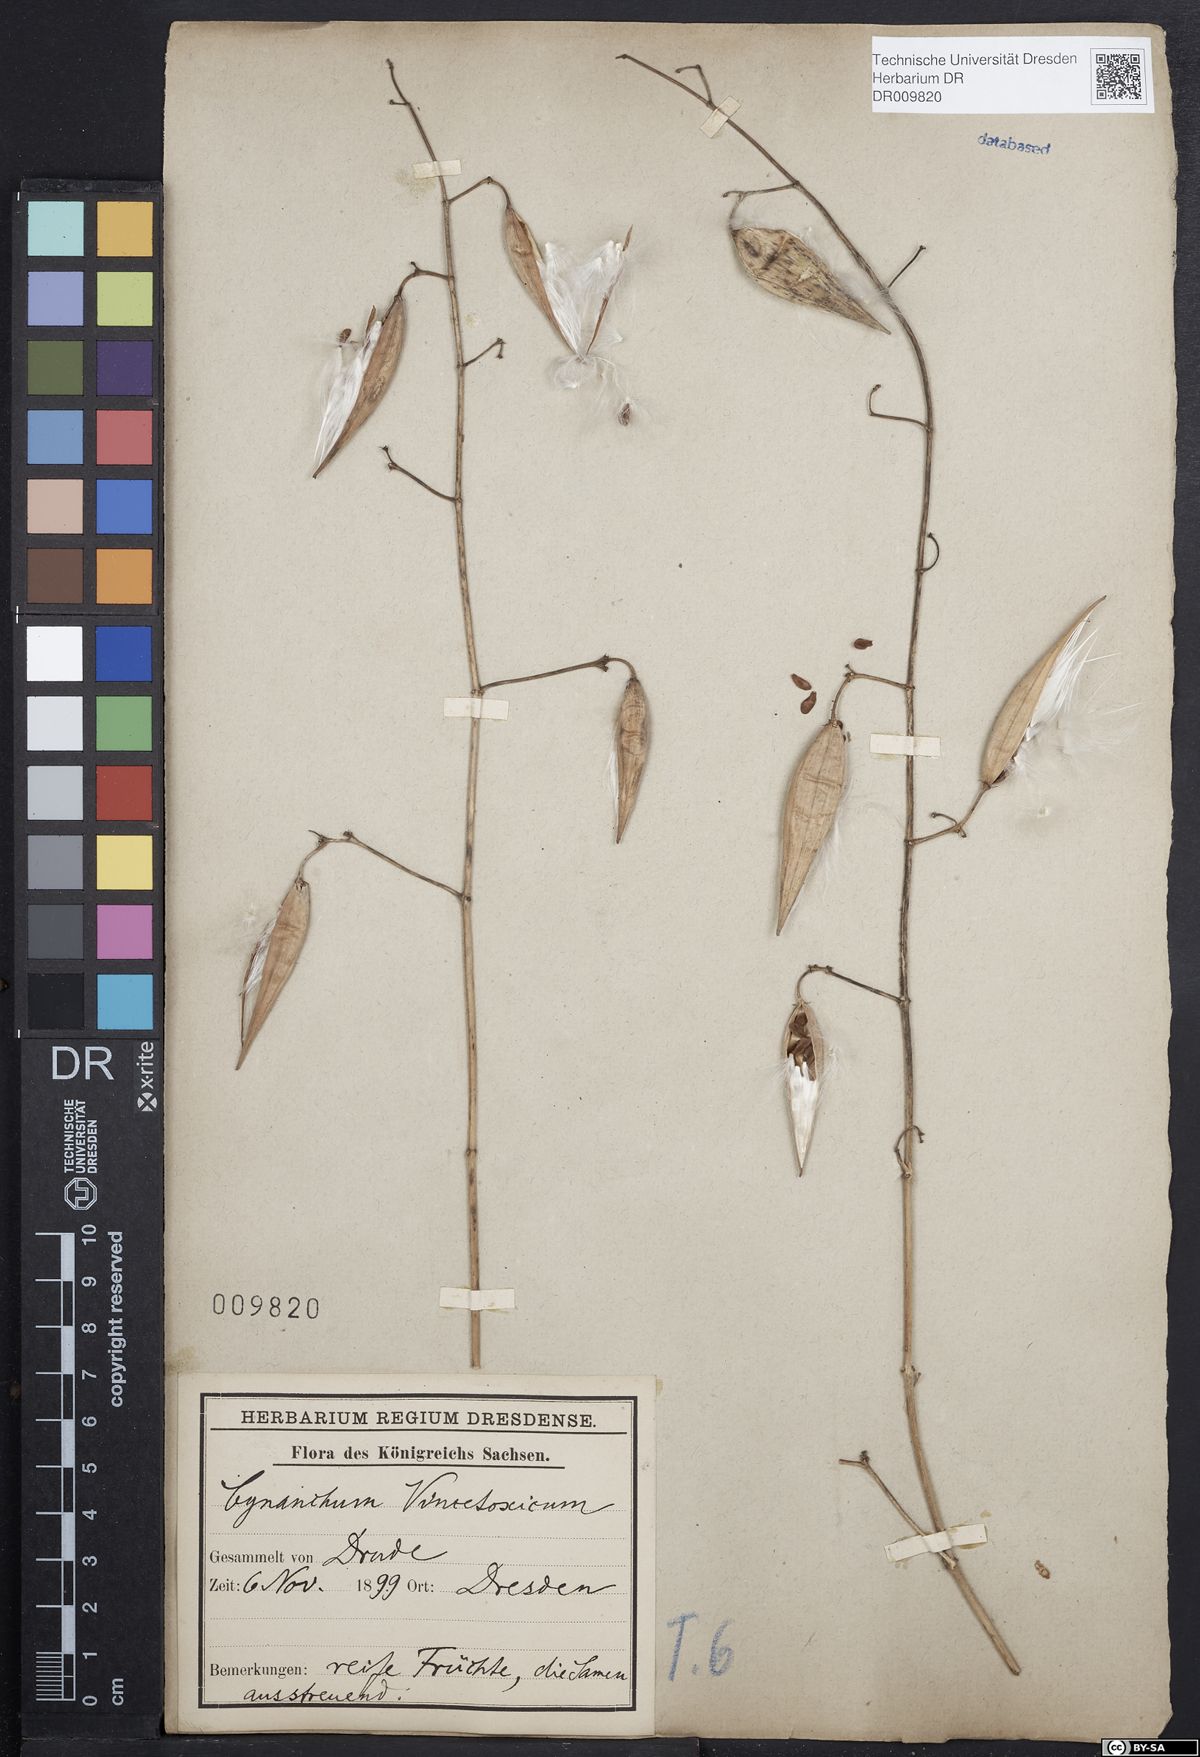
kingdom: Plantae
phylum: Tracheophyta
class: Magnoliopsida
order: Gentianales
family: Apocynaceae
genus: Vincetoxicum
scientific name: Vincetoxicum hirundinaria
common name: White swallowwort
